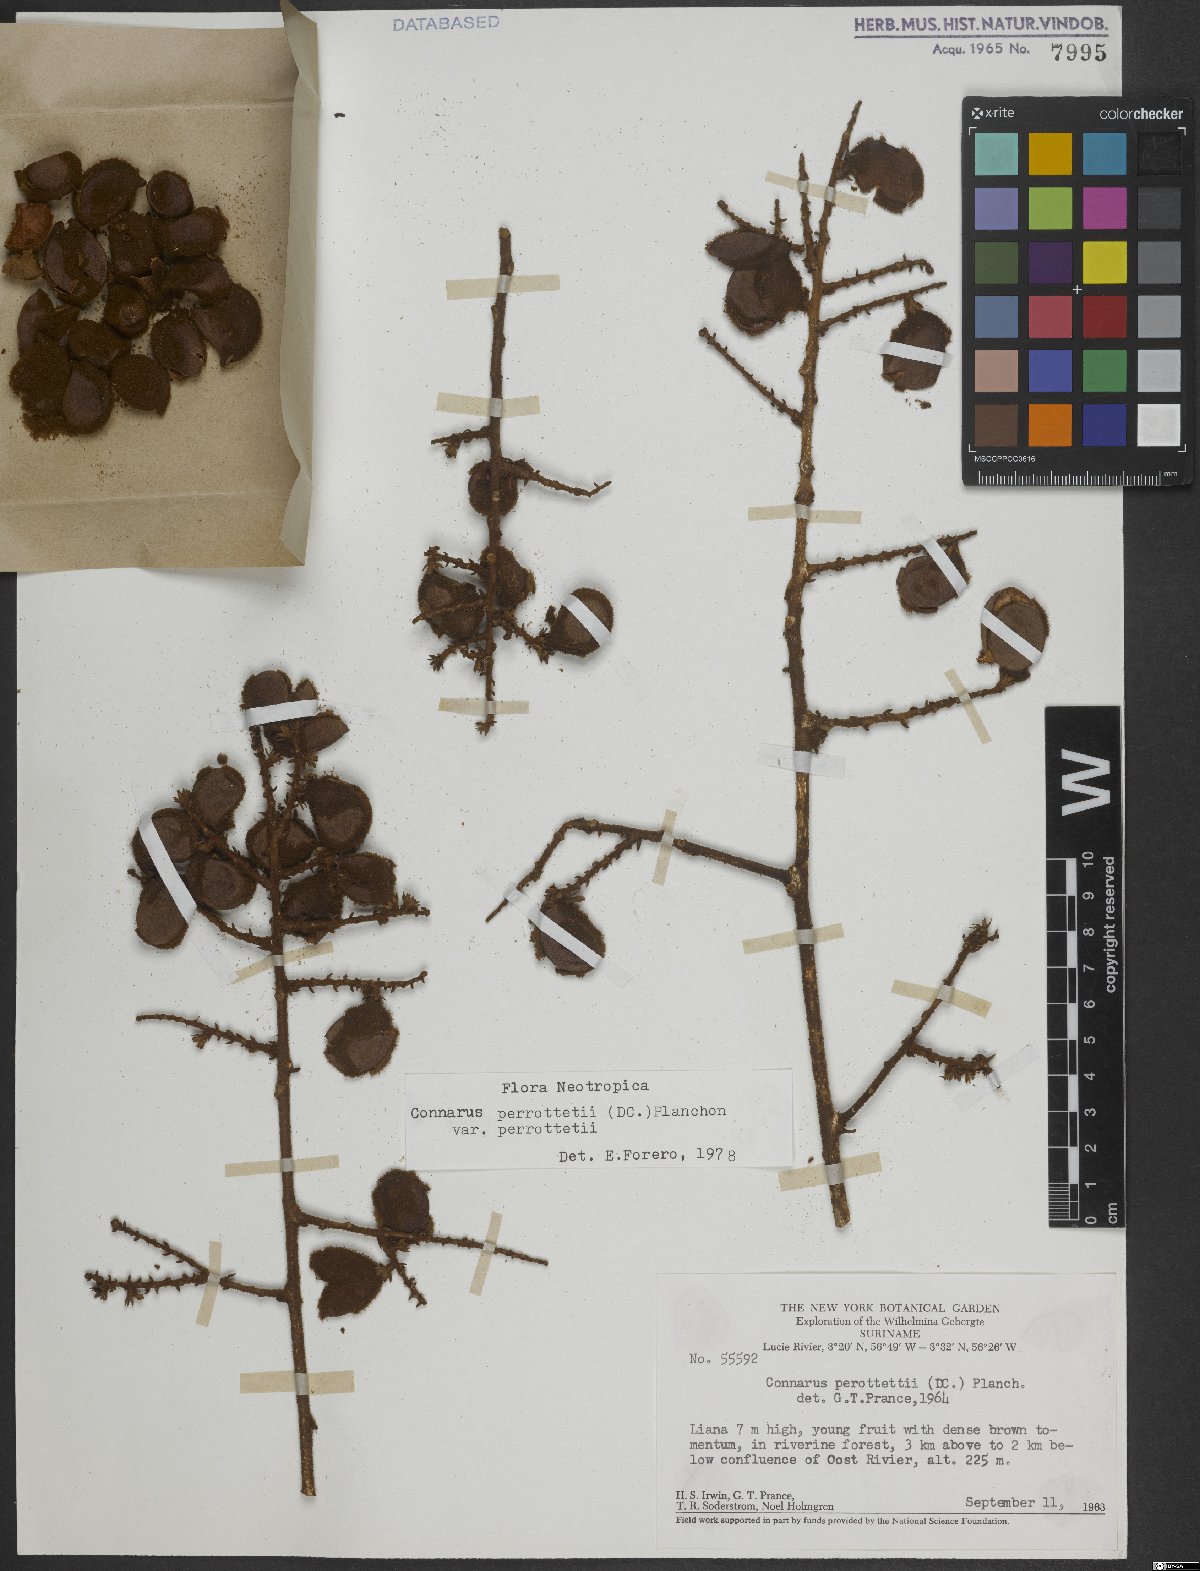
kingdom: Plantae
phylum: Tracheophyta
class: Magnoliopsida
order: Oxalidales
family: Connaraceae
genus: Connarus
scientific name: Connarus perrottetii
